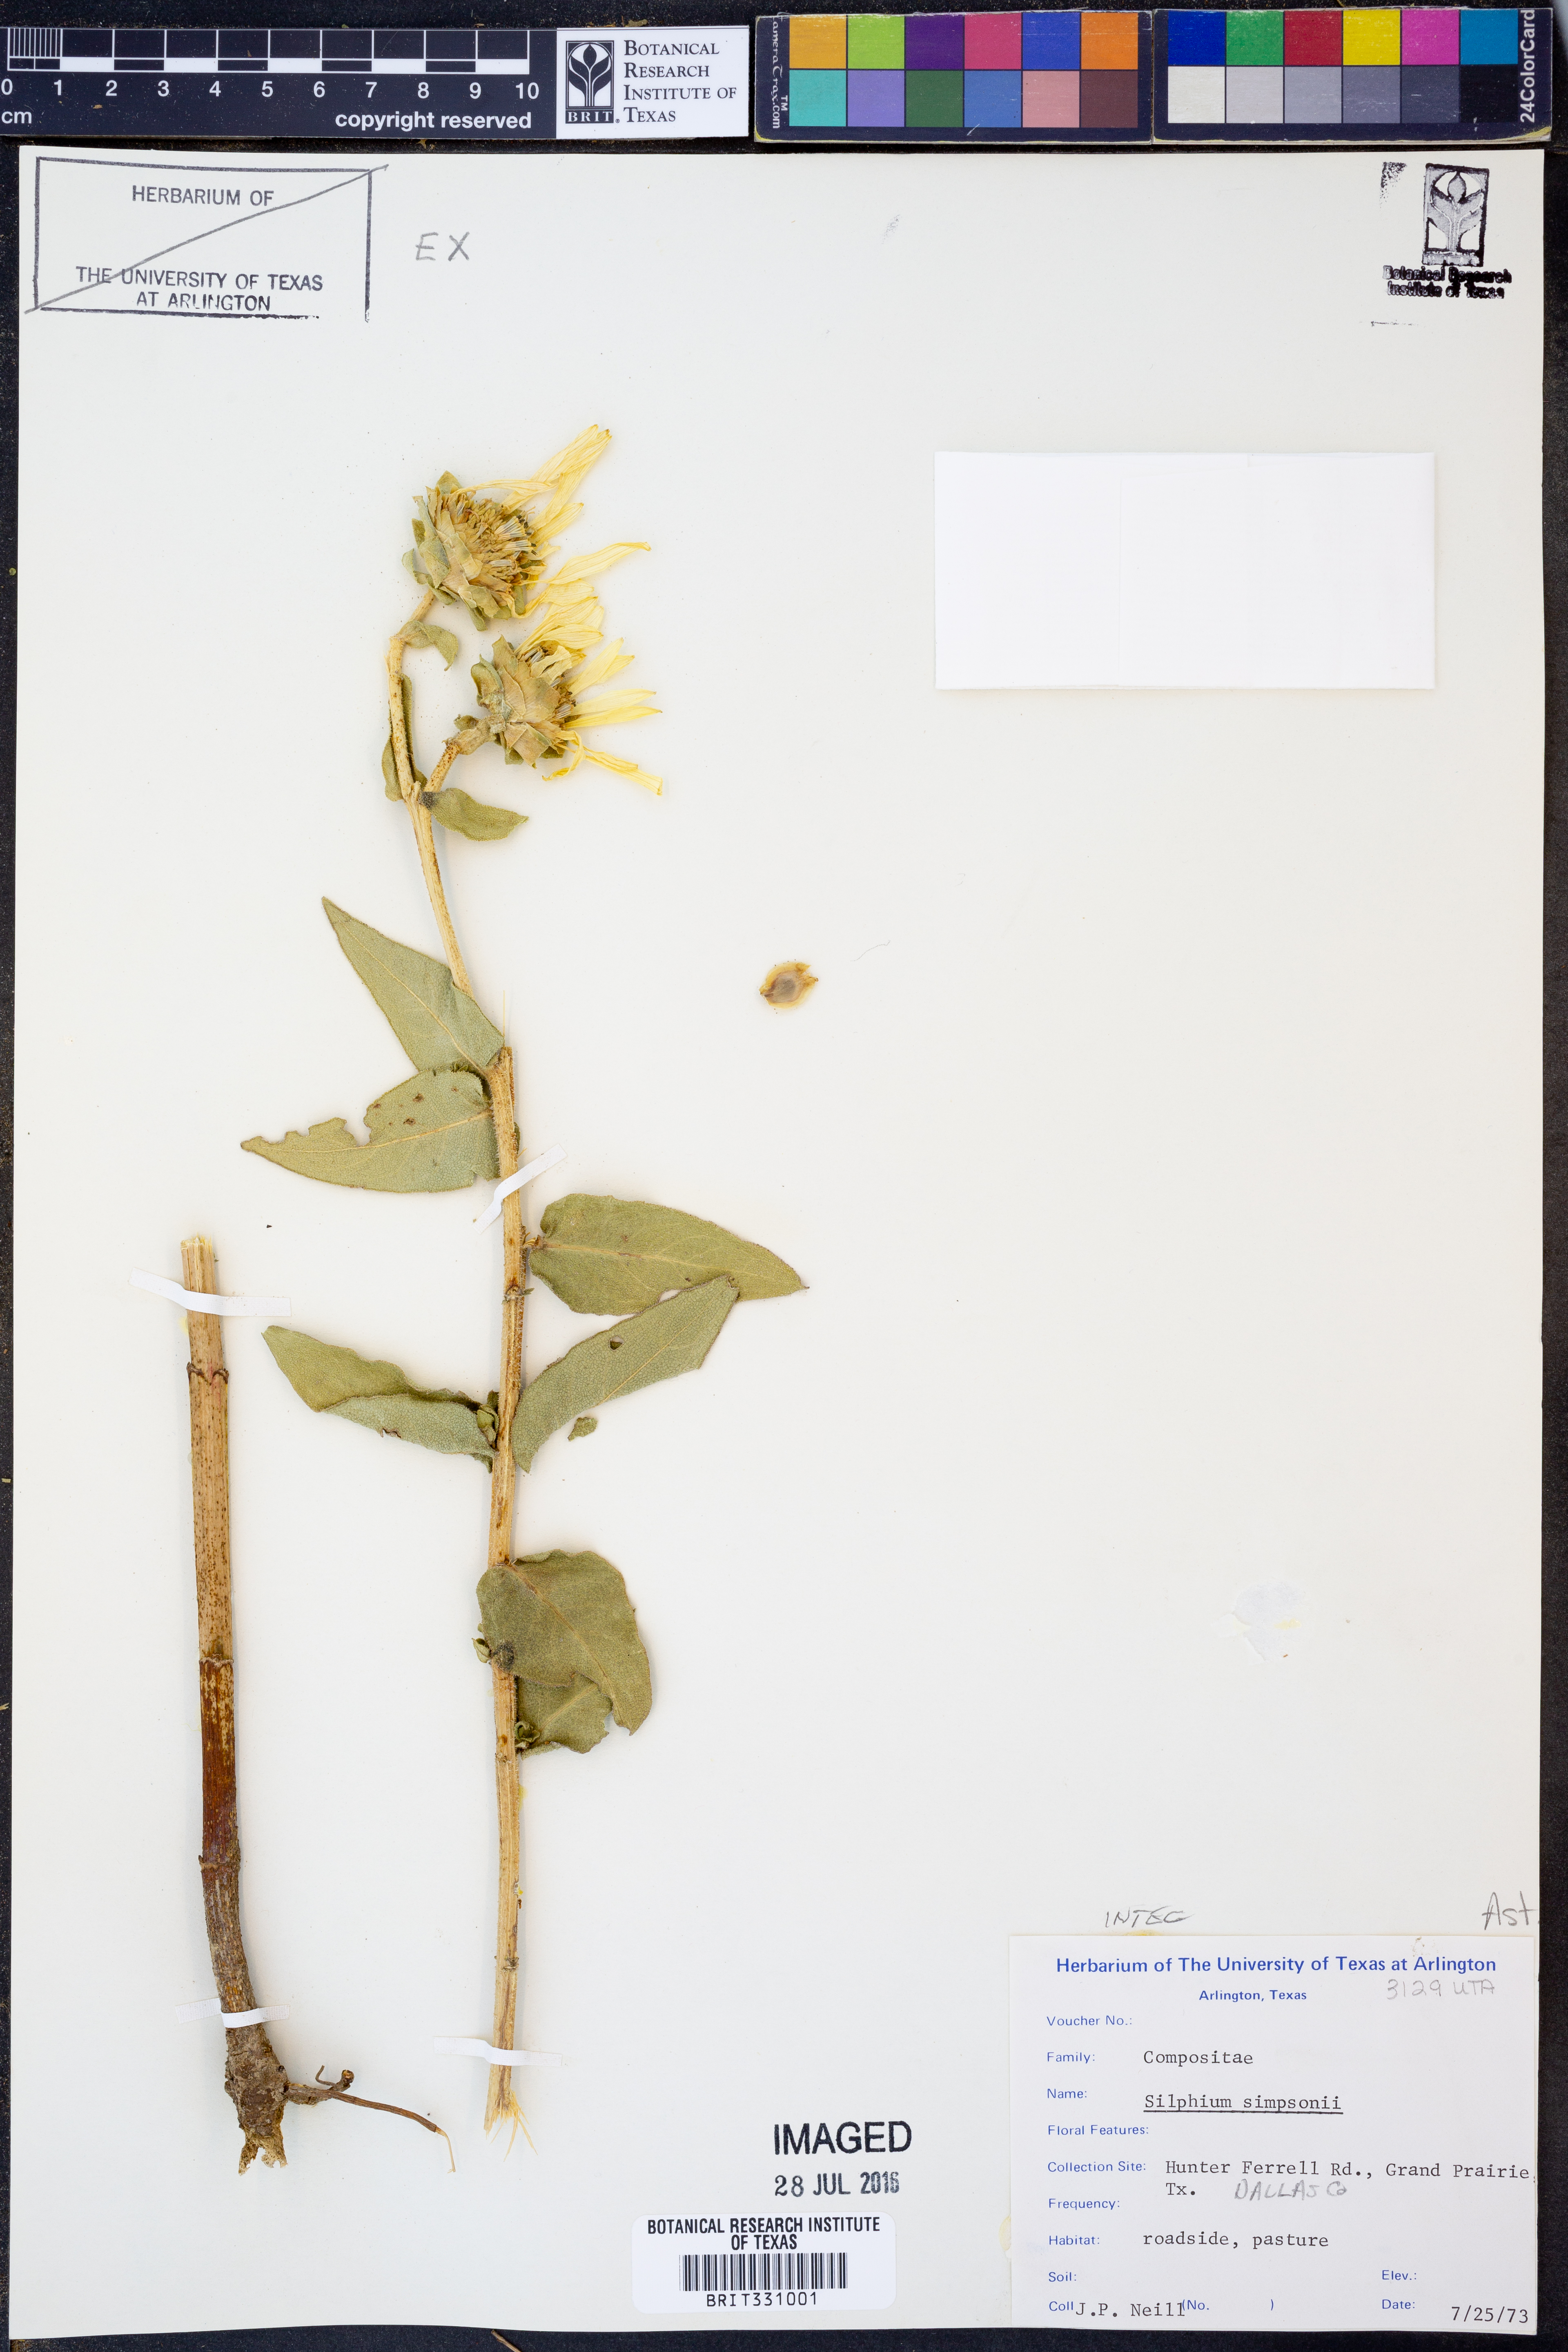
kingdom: Plantae
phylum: Tracheophyta
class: Magnoliopsida
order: Asterales
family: Asteraceae
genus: Silphium
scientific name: Silphium asteriscus
